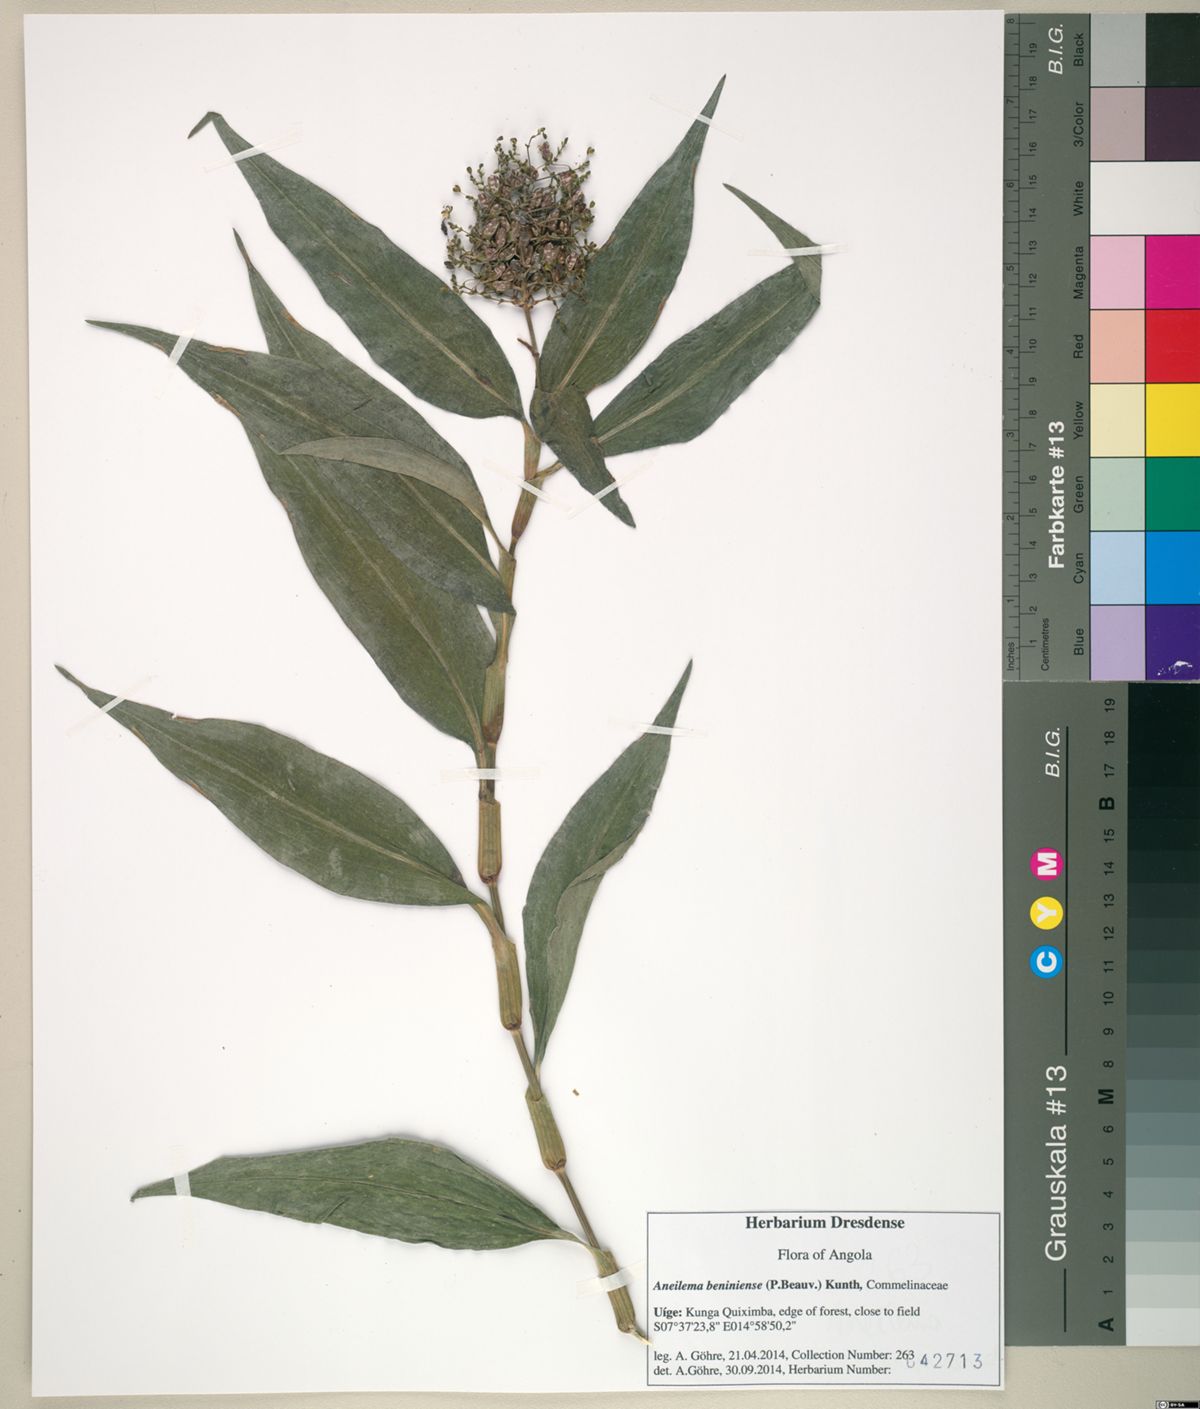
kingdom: Plantae
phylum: Tracheophyta
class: Liliopsida
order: Commelinales
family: Commelinaceae
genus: Aneilema
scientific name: Aneilema beniniense
